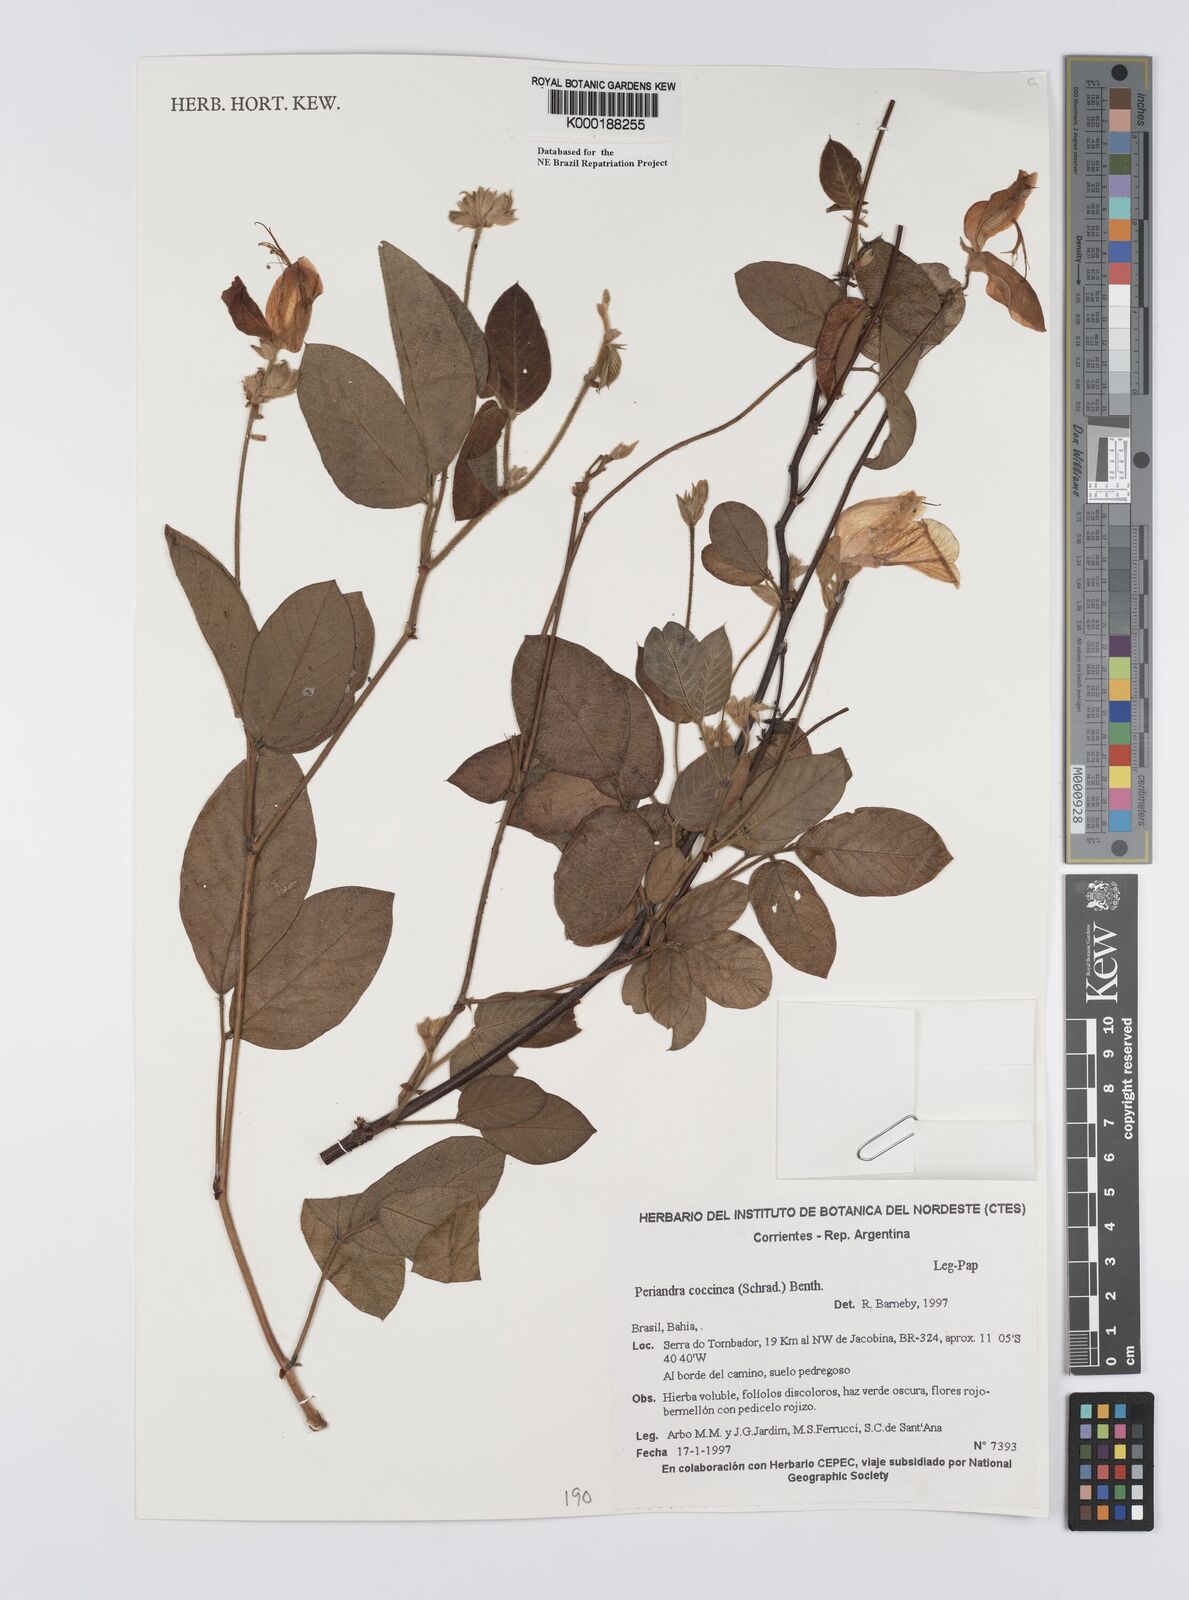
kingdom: Plantae
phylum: Tracheophyta
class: Magnoliopsida
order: Fabales
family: Fabaceae
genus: Periandra
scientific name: Periandra coccinea
